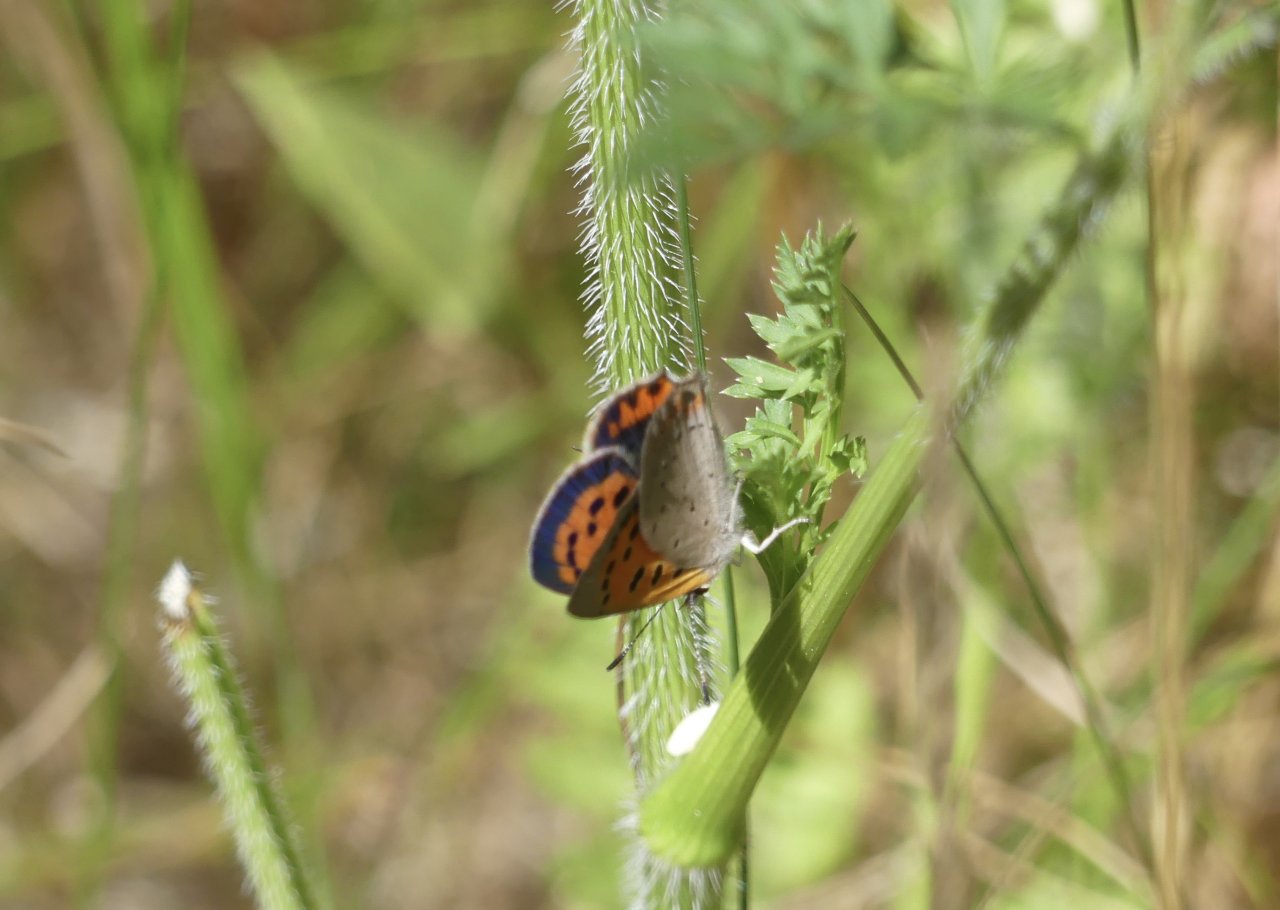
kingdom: Animalia
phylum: Arthropoda
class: Insecta
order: Lepidoptera
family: Lycaenidae
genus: Lycaena
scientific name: Lycaena phlaeas
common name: American Copper
